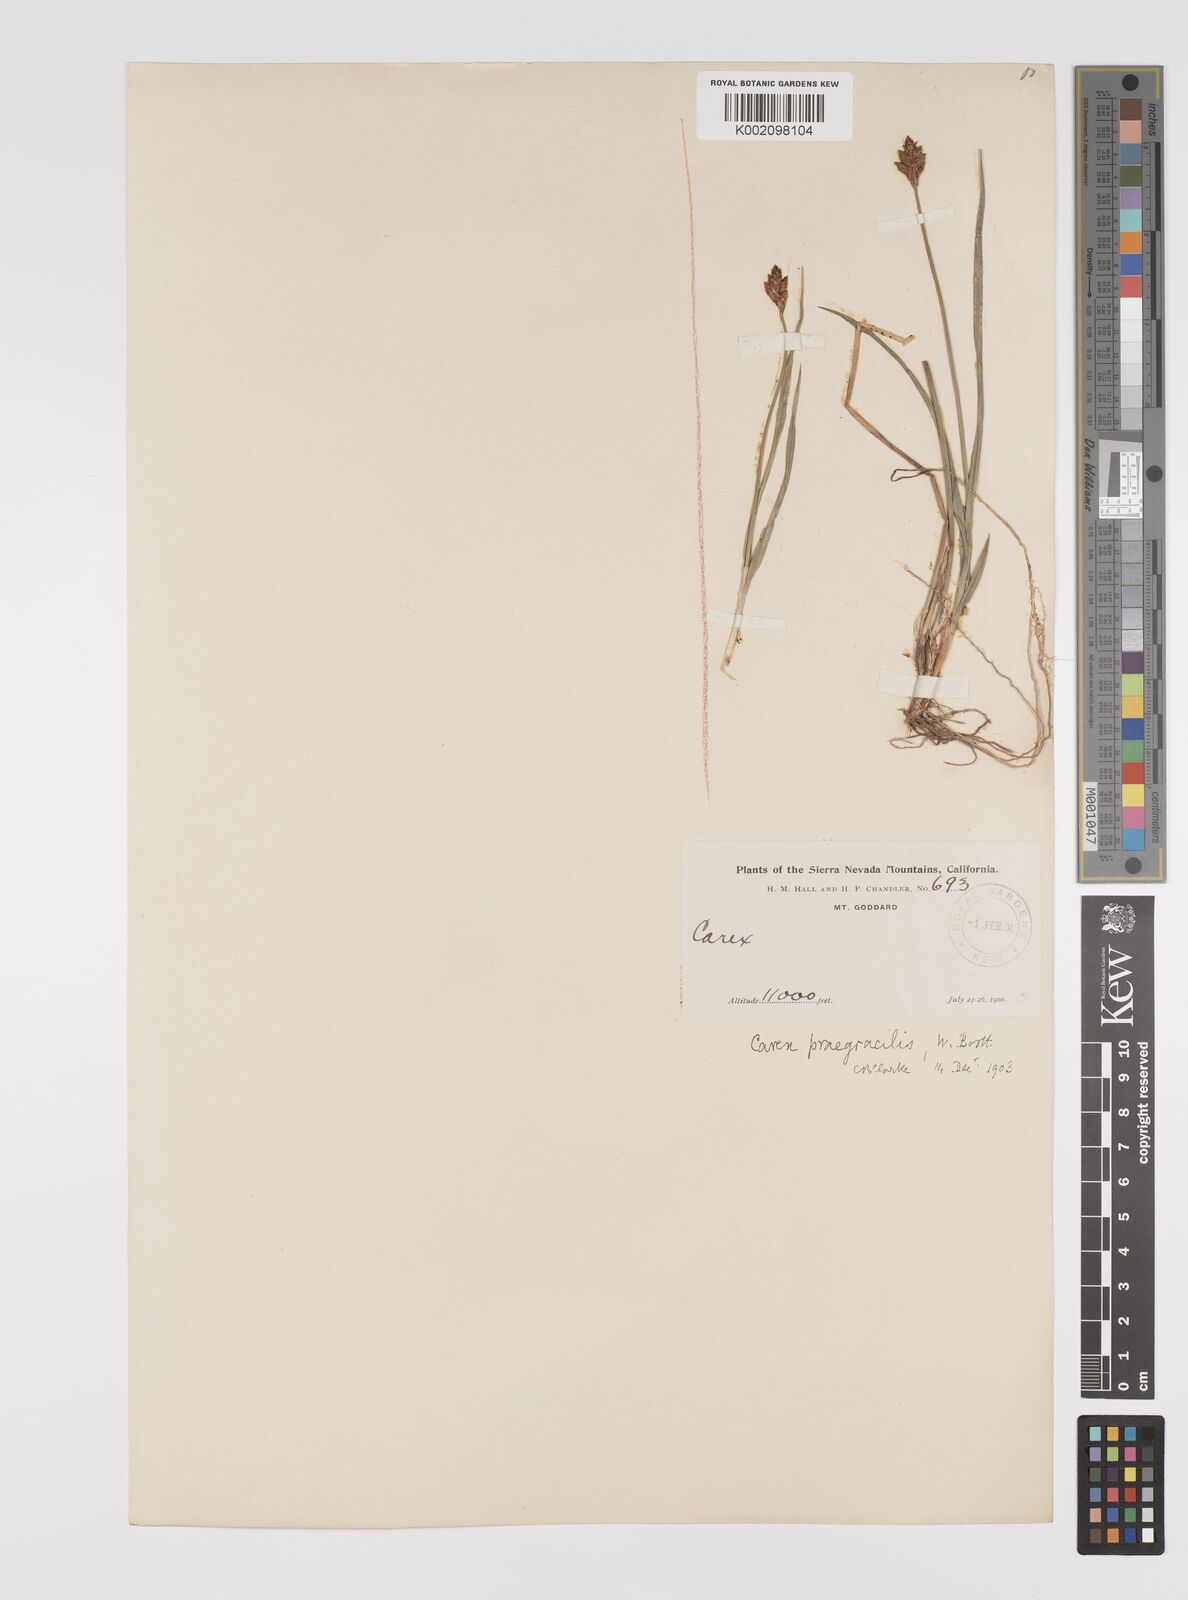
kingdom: Plantae
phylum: Tracheophyta
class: Liliopsida
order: Poales
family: Cyperaceae
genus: Carex
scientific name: Carex praegracilis
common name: Black creeper sedge
